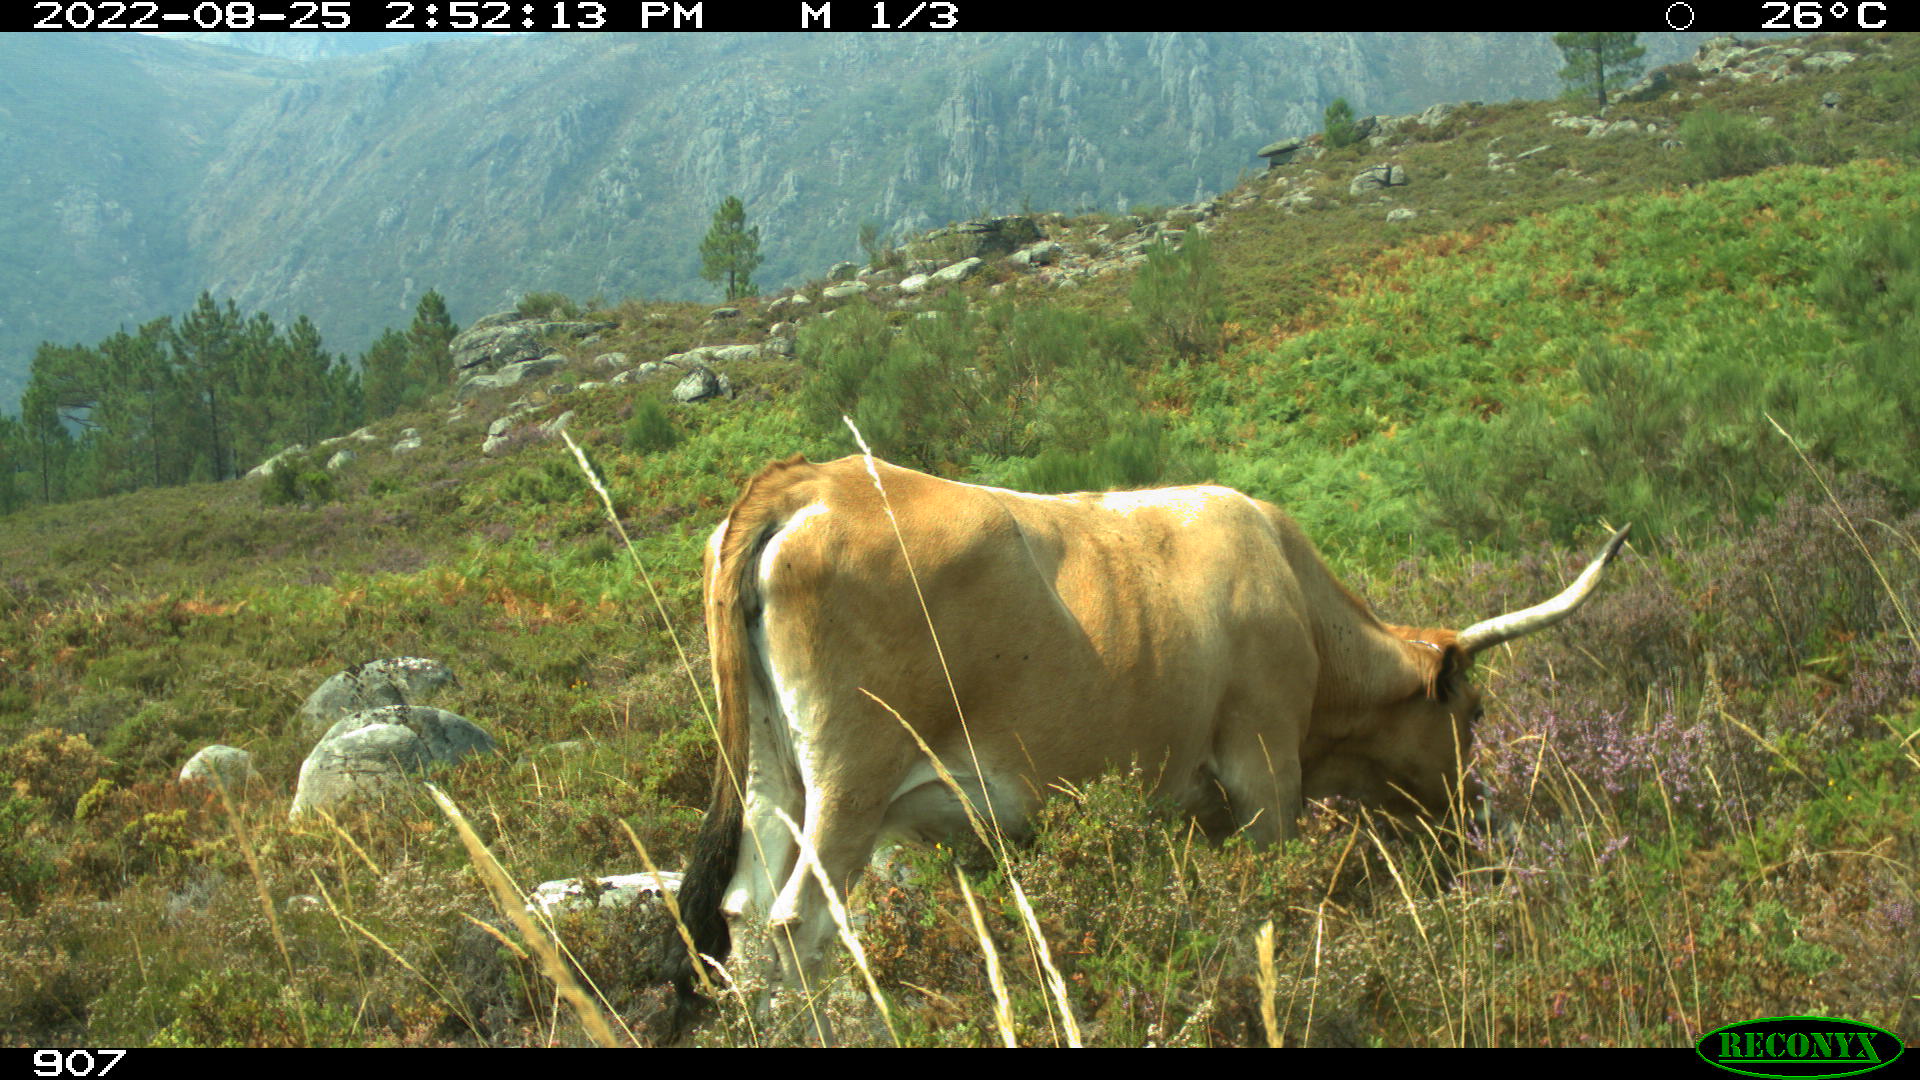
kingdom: Animalia
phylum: Chordata
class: Mammalia
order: Artiodactyla
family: Bovidae
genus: Bos
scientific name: Bos taurus
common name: Domesticated cattle
